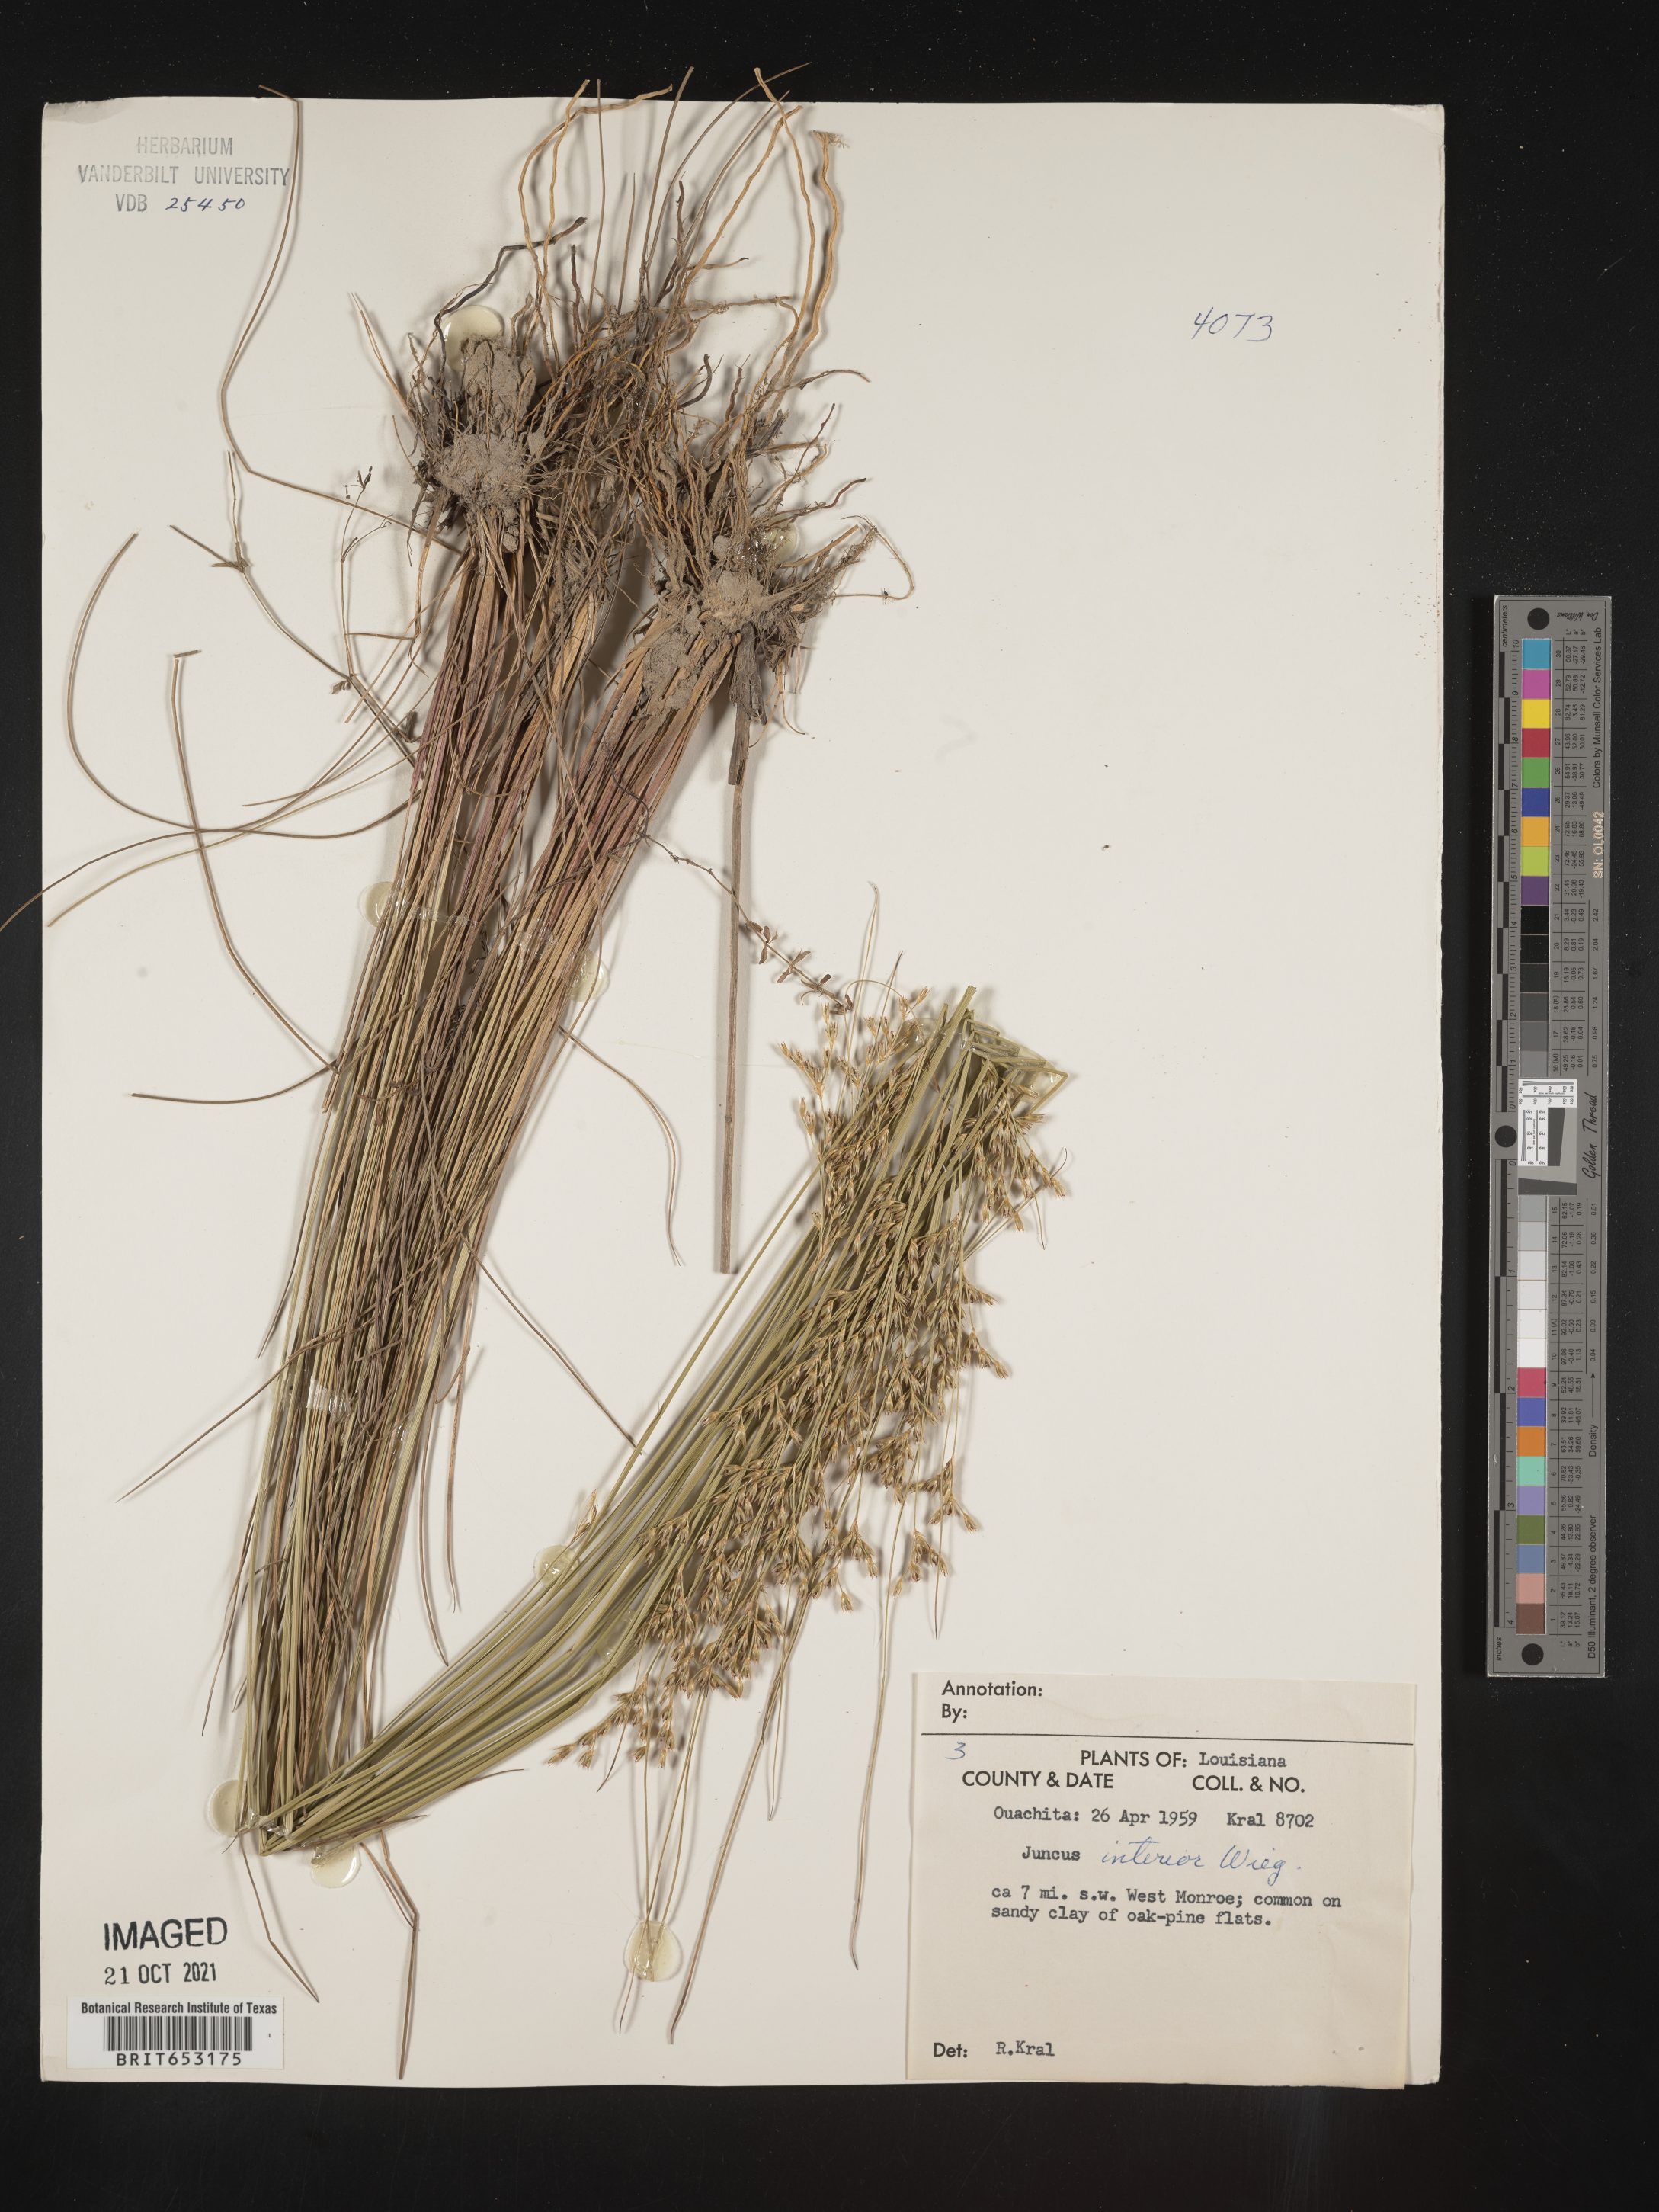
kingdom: Plantae
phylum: Tracheophyta
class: Liliopsida
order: Poales
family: Juncaceae
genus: Juncus
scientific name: Juncus interior
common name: Interior rush
